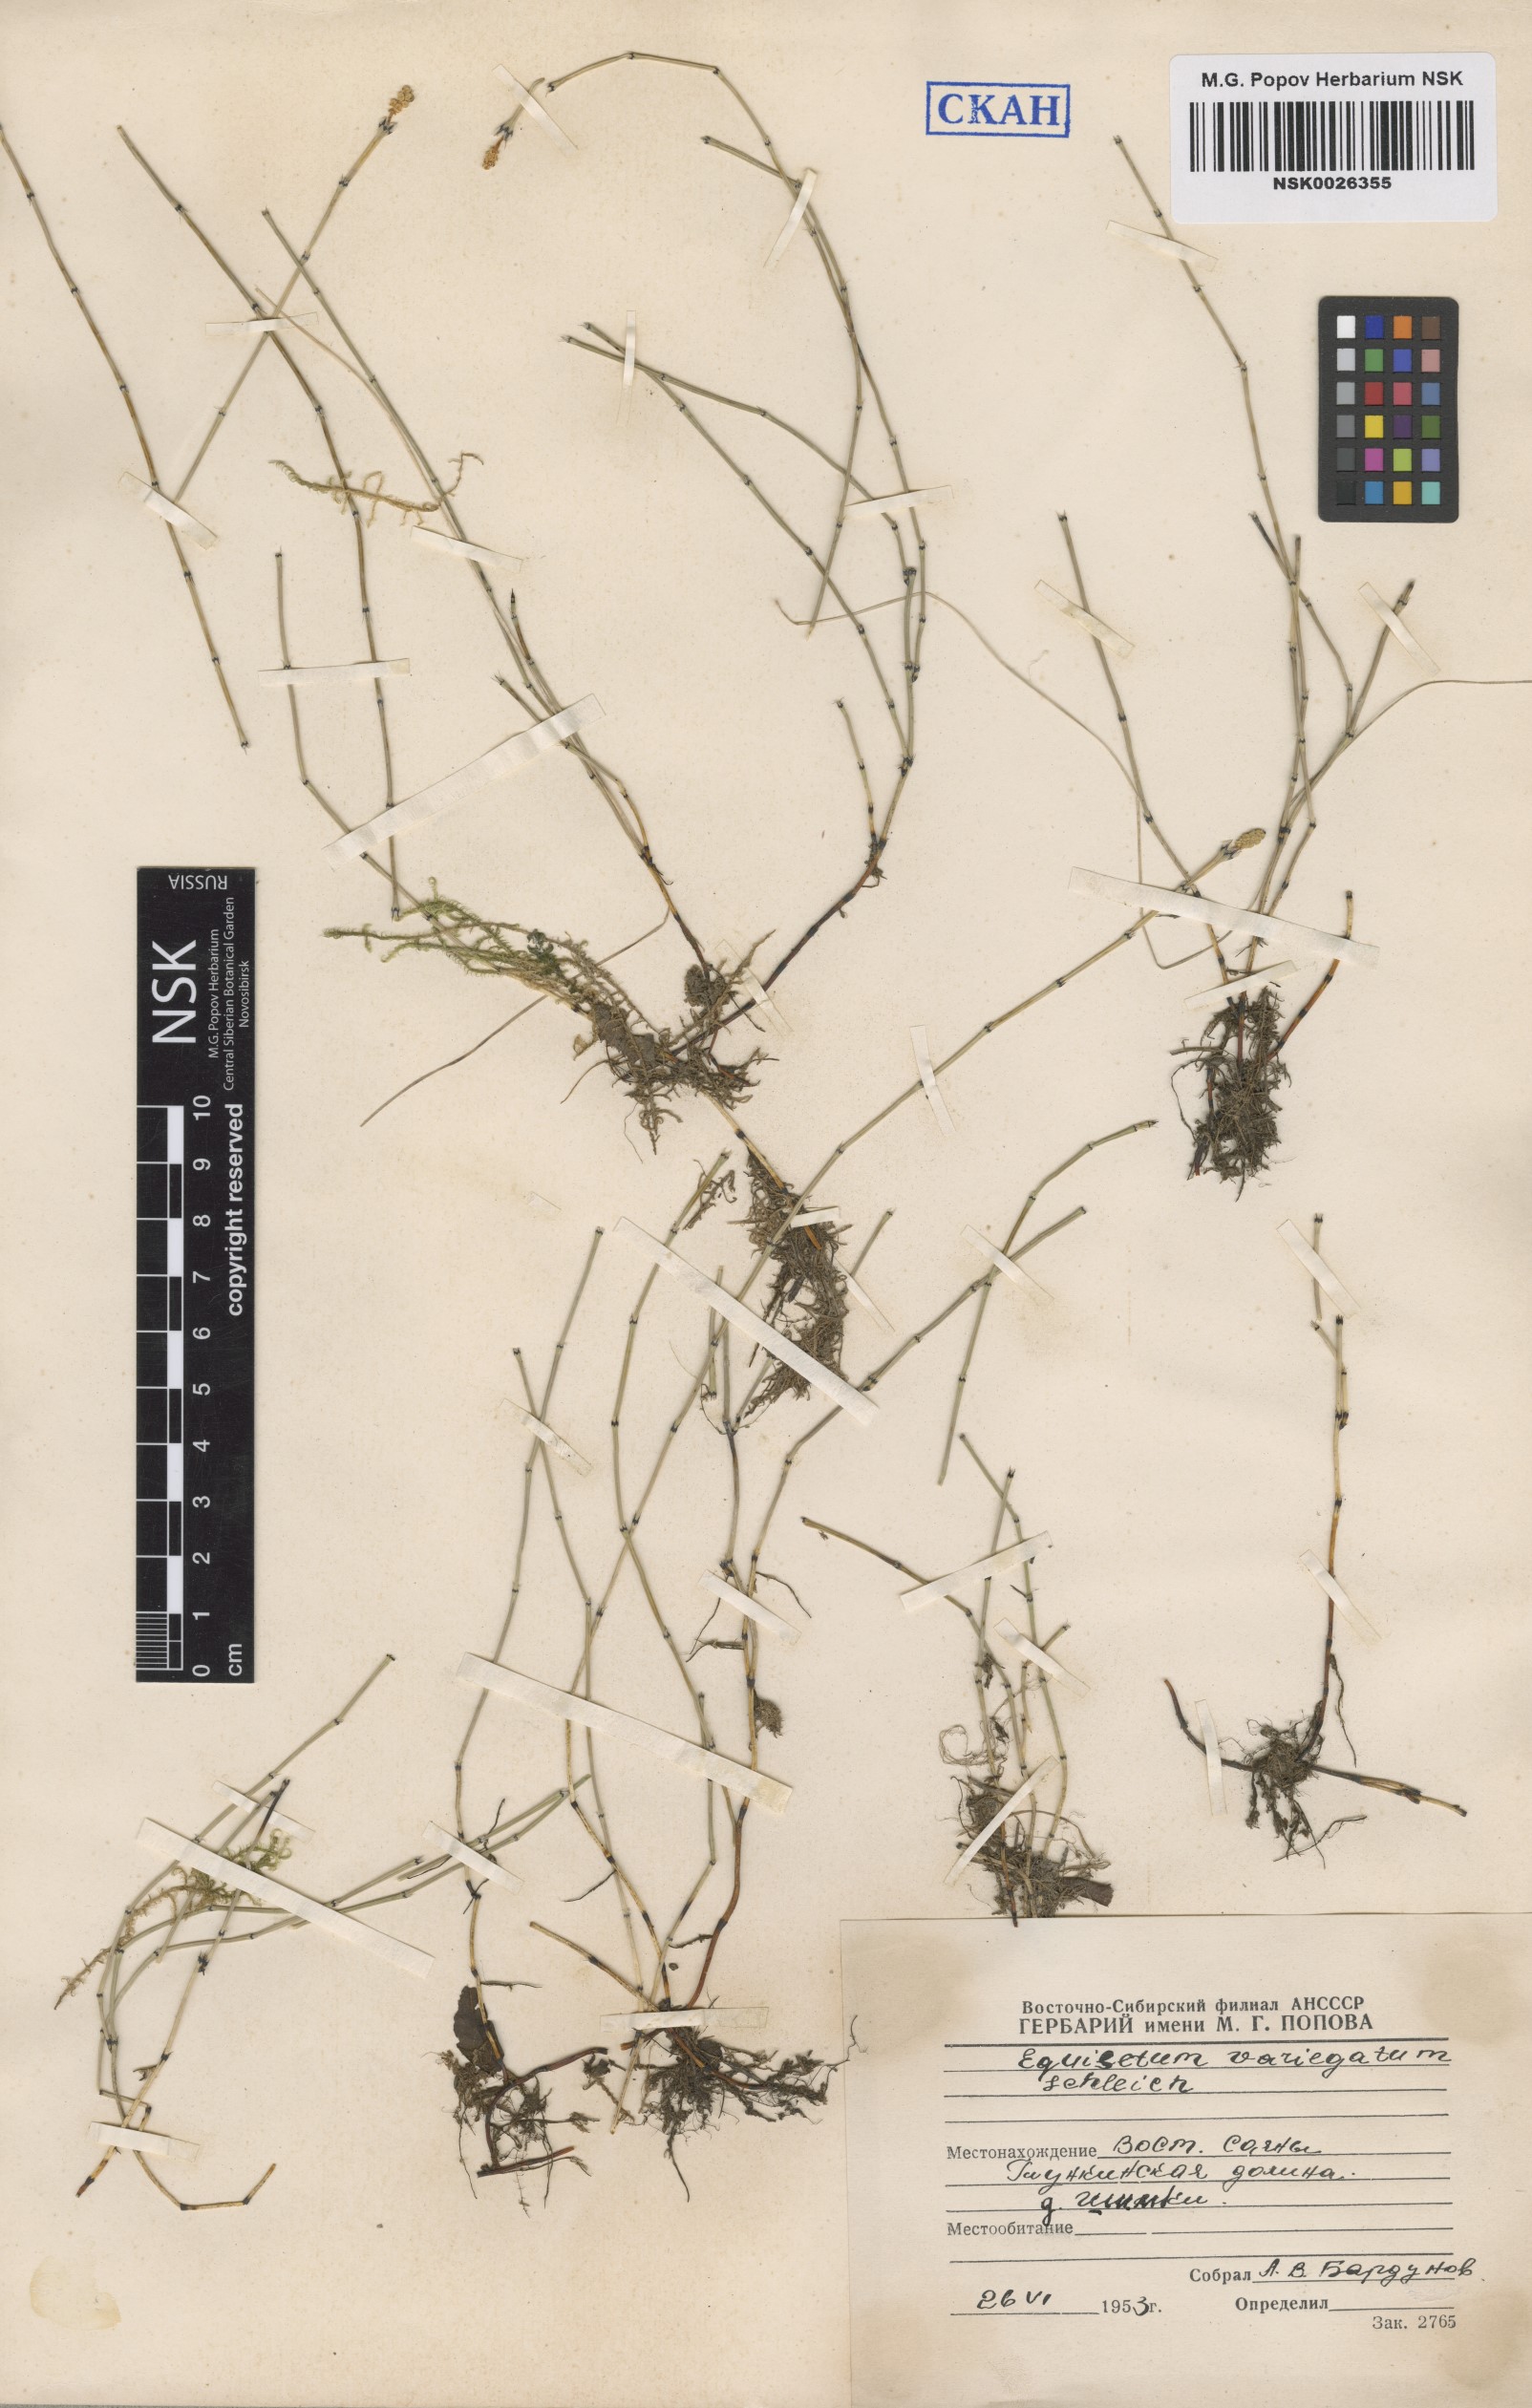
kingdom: Plantae
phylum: Tracheophyta
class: Polypodiopsida
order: Equisetales
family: Equisetaceae
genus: Equisetum
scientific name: Equisetum variegatum
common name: Variegated horsetail
